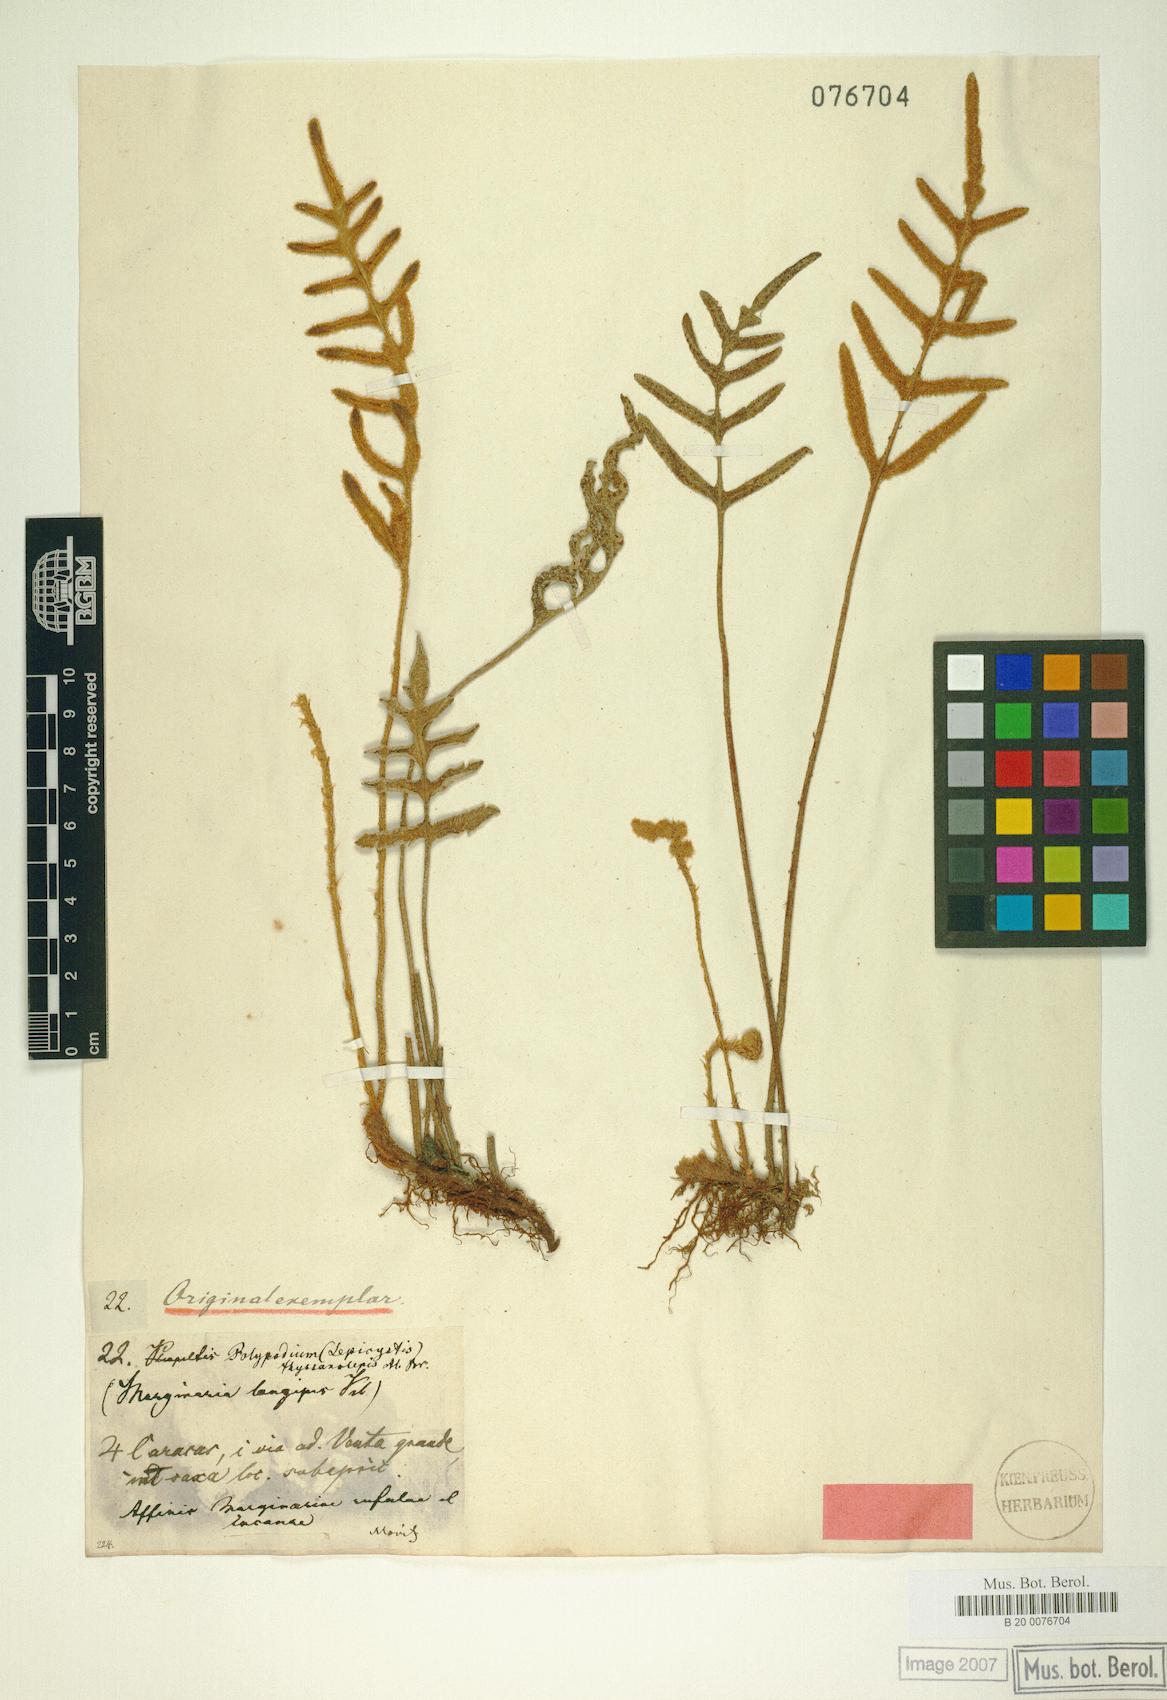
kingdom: Plantae
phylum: Tracheophyta
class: Polypodiopsida
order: Polypodiales
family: Polypodiaceae
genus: Pleopeltis
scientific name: Pleopeltis thyssanolepis
